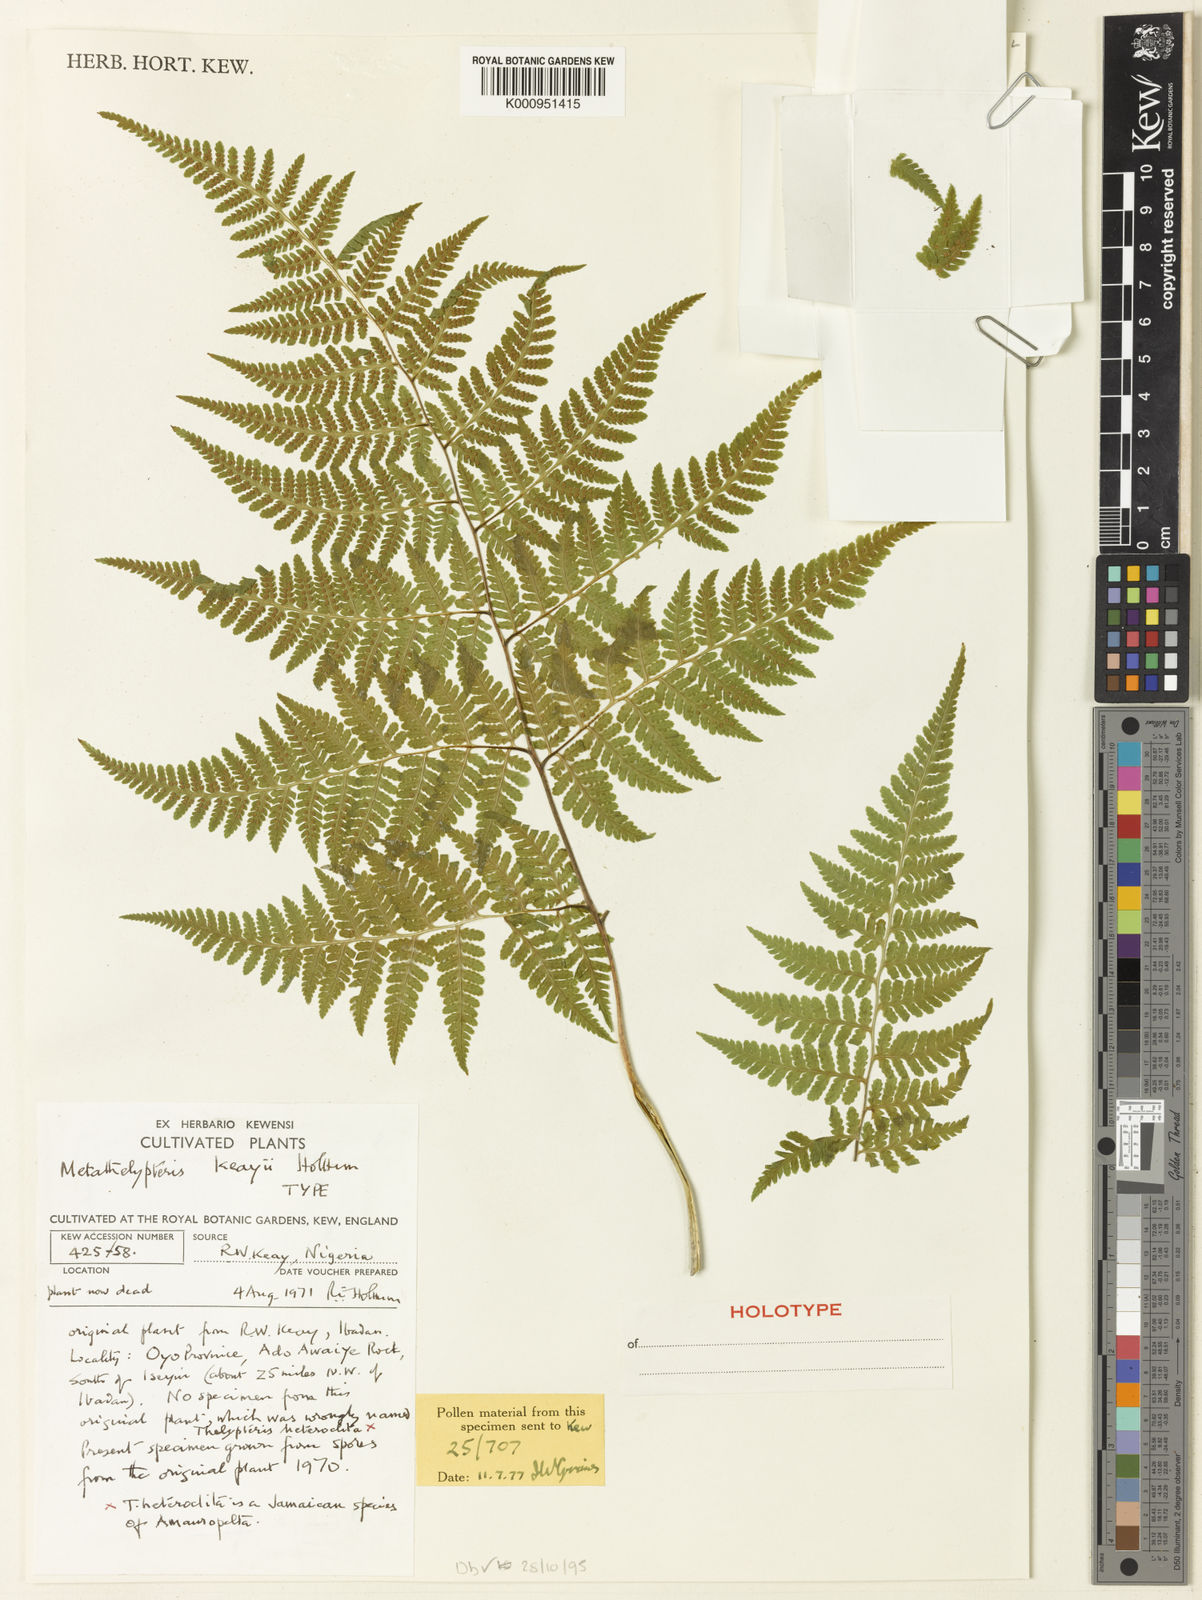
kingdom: Plantae
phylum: Tracheophyta
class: Polypodiopsida
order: Polypodiales
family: Thelypteridaceae
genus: Metathelypteris
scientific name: Metathelypteris
